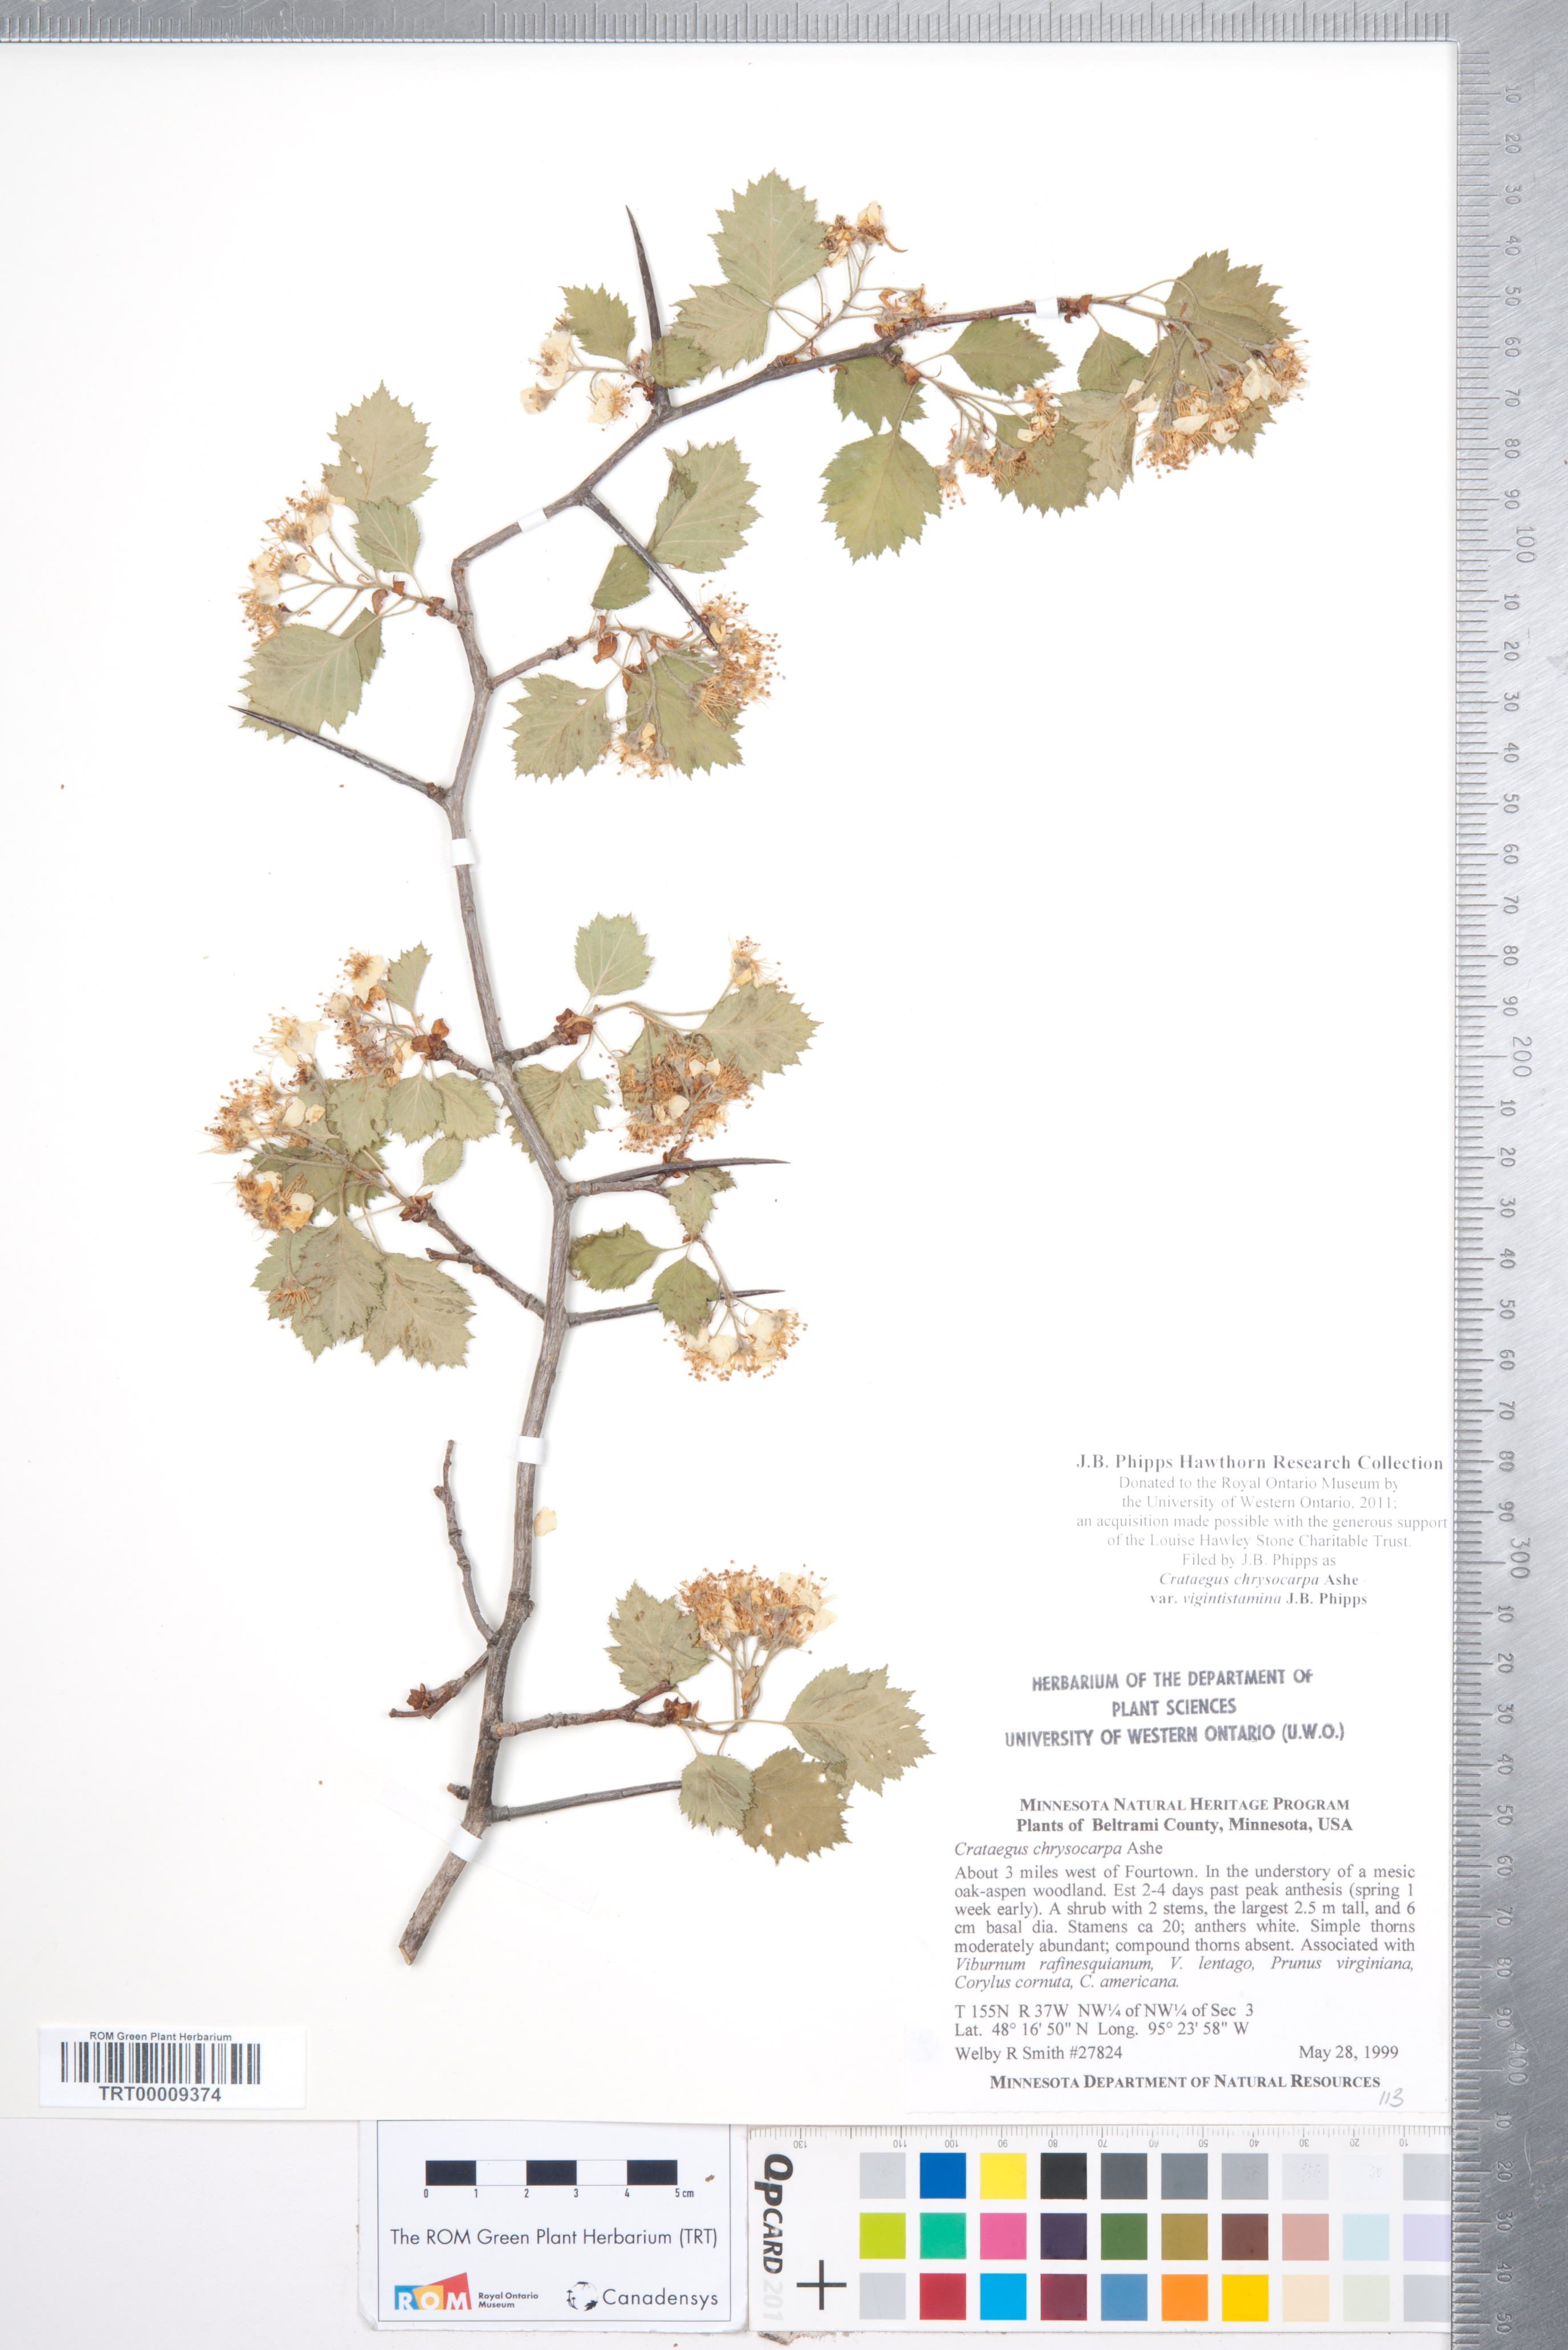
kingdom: Plantae
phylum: Tracheophyta
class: Magnoliopsida
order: Rosales
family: Rosaceae
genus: Crataegus
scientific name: Crataegus chrysocarpa
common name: Fire-berry hawthorn
